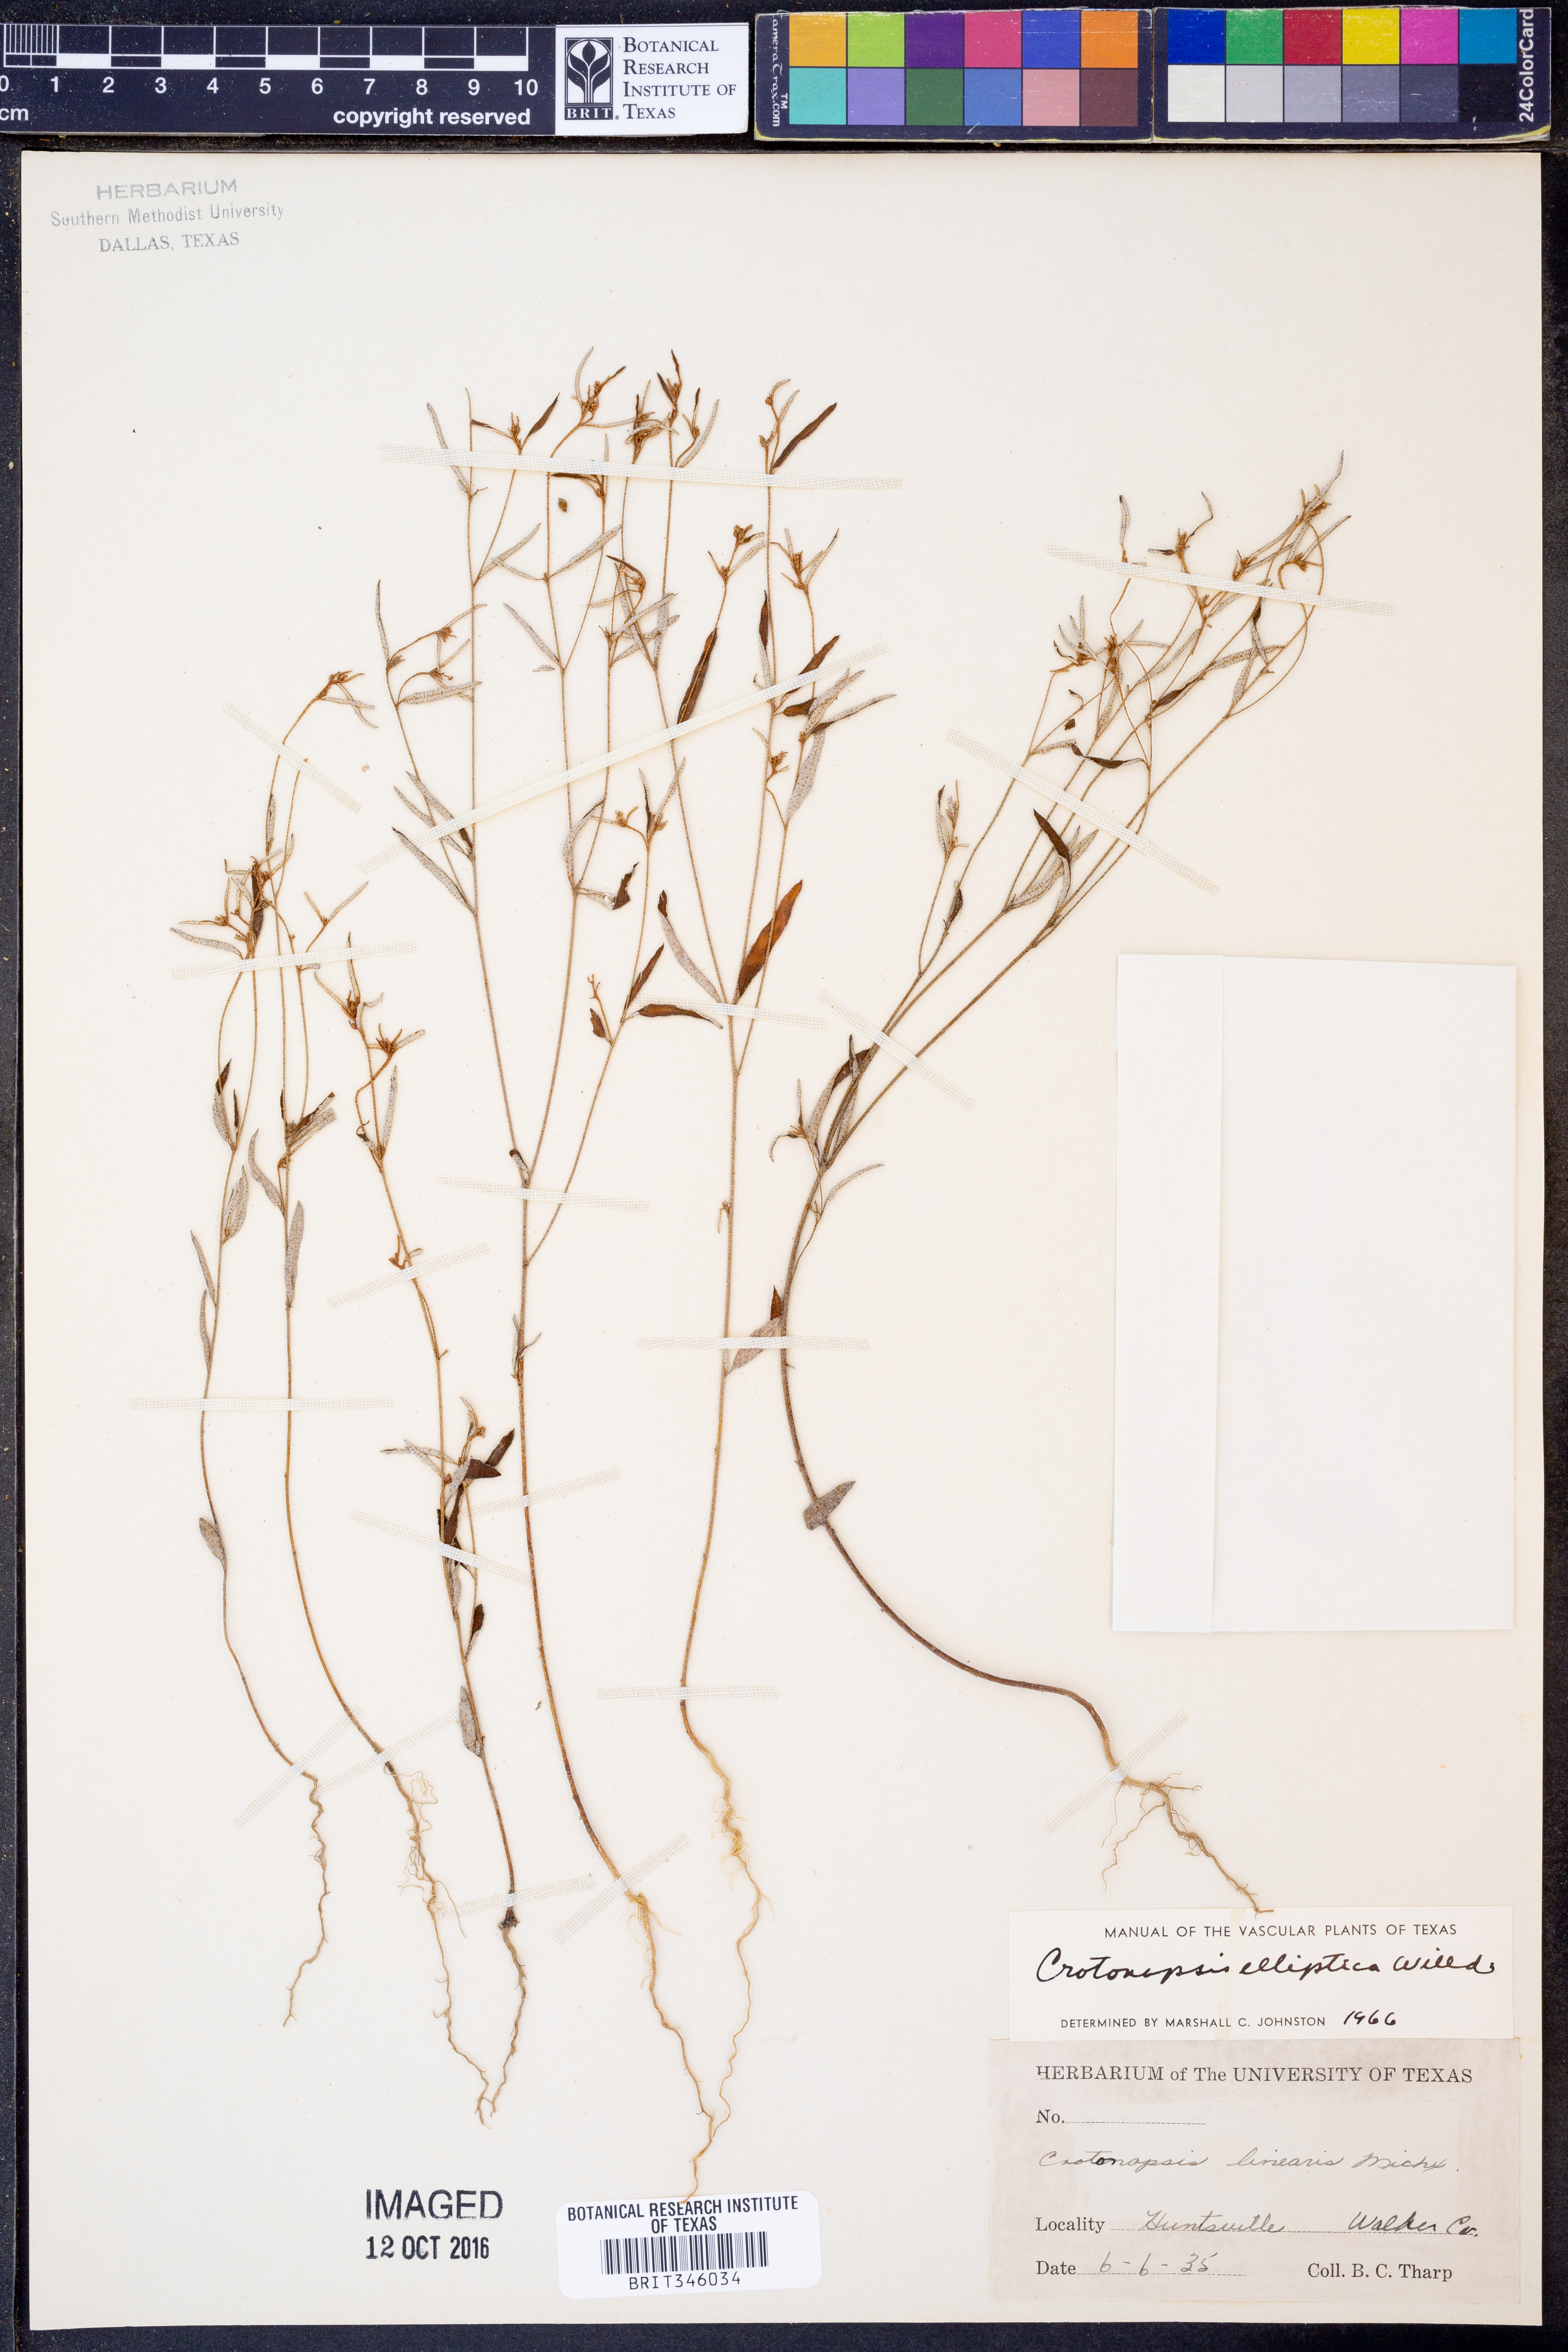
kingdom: Plantae
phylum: Tracheophyta
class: Magnoliopsida
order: Malpighiales
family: Euphorbiaceae
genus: Croton
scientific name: Croton michauxii
